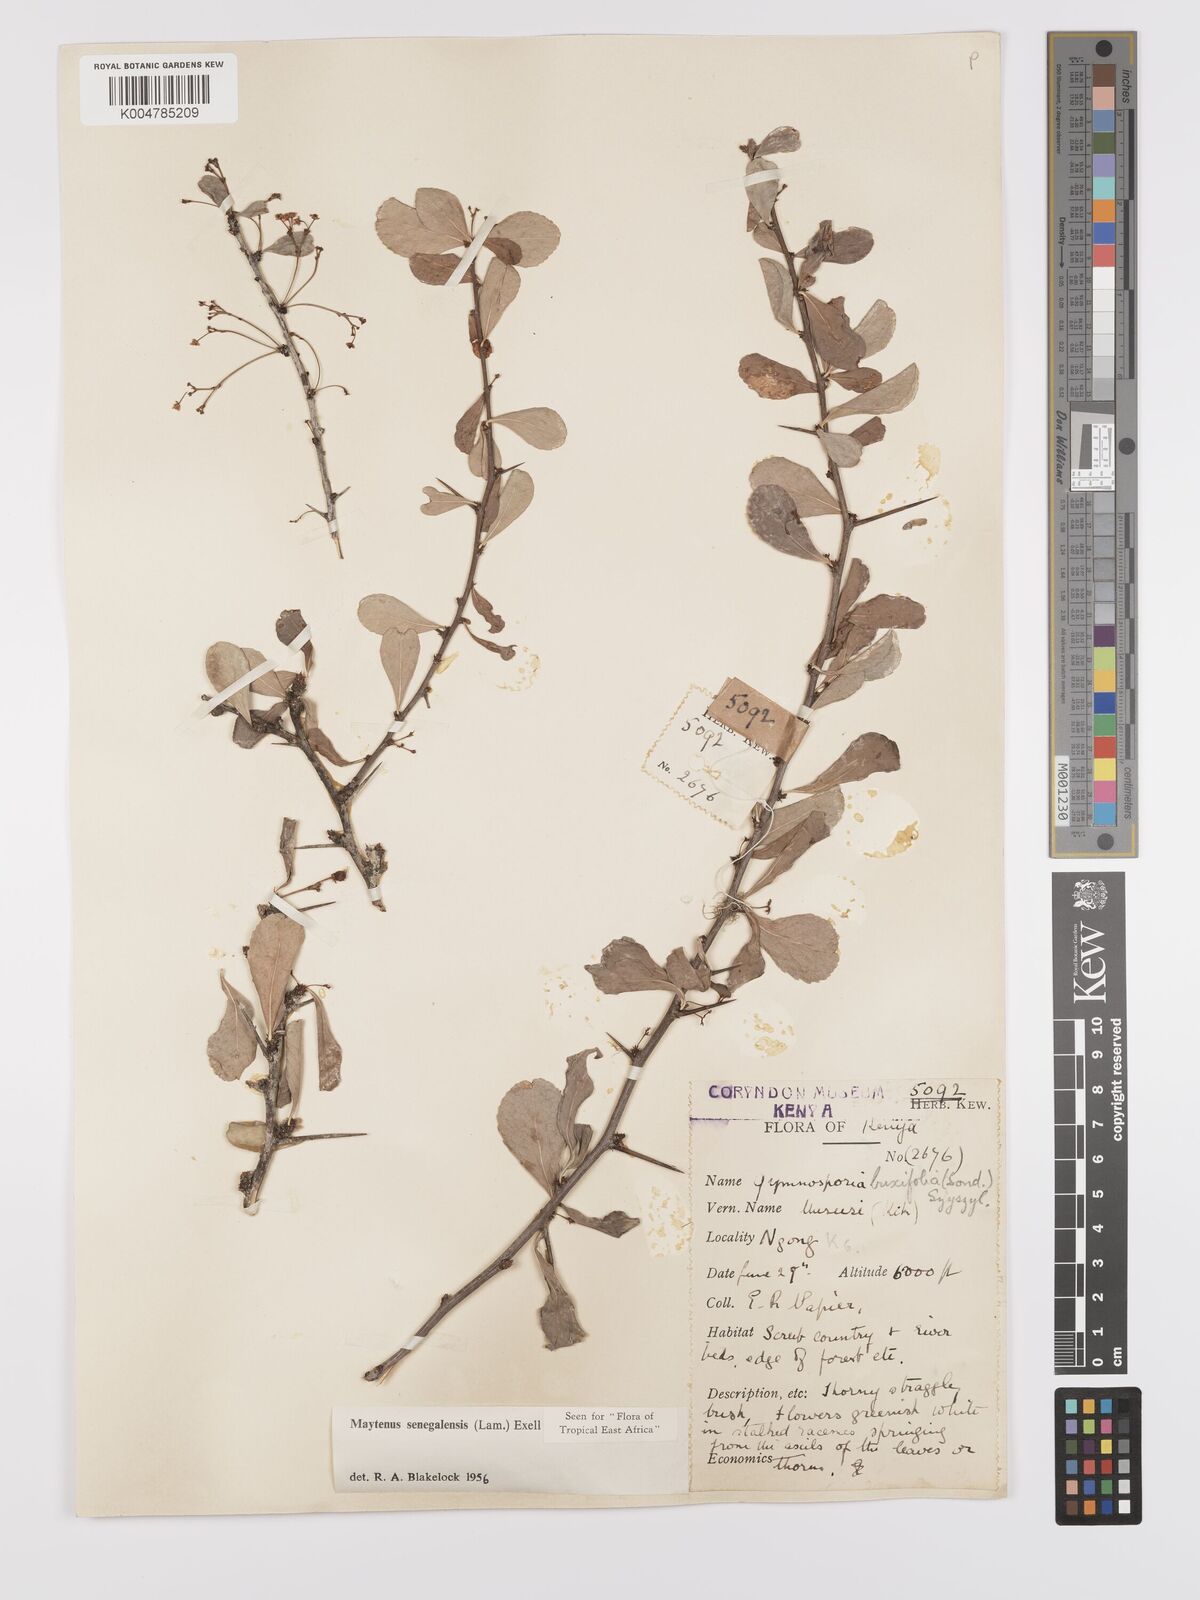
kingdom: Plantae
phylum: Tracheophyta
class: Magnoliopsida
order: Celastrales
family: Celastraceae
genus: Gymnosporia
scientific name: Gymnosporia heterophylla
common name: Angle-stem spikethorn
